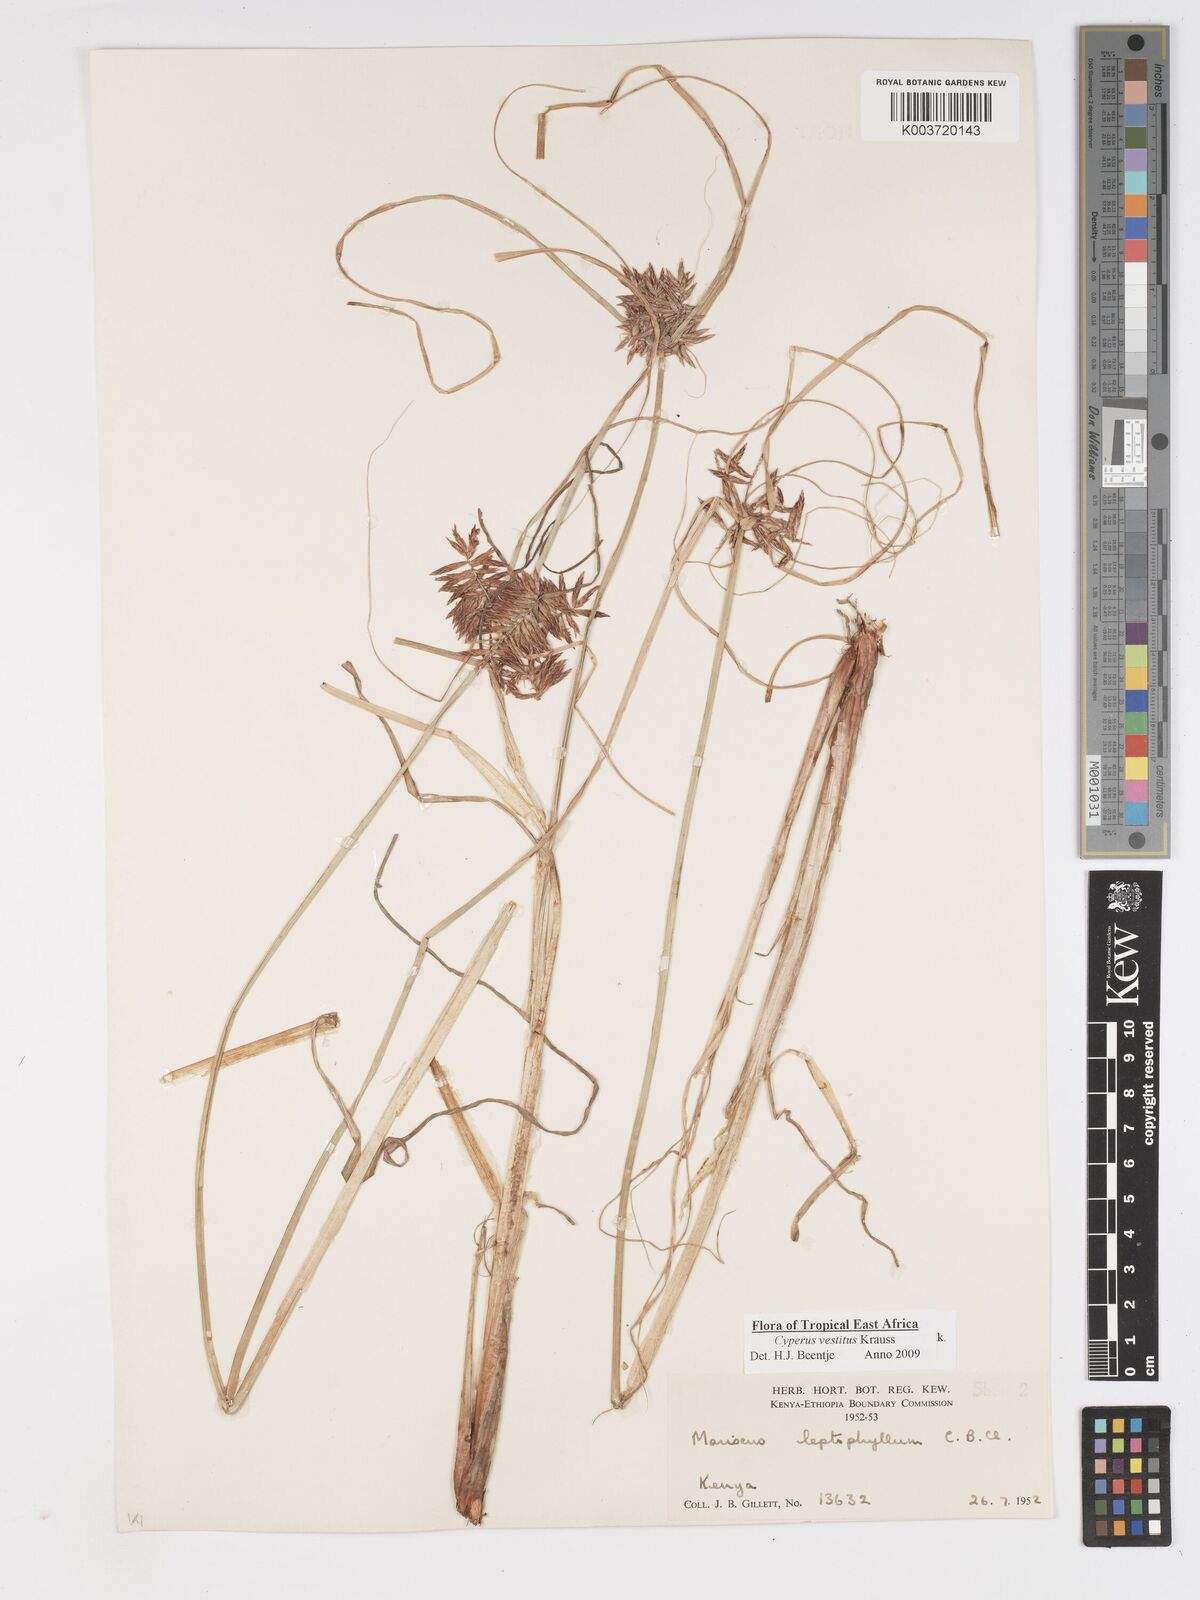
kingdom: Plantae
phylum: Tracheophyta
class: Liliopsida
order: Poales
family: Cyperaceae
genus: Cyperus
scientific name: Cyperus vestitus
